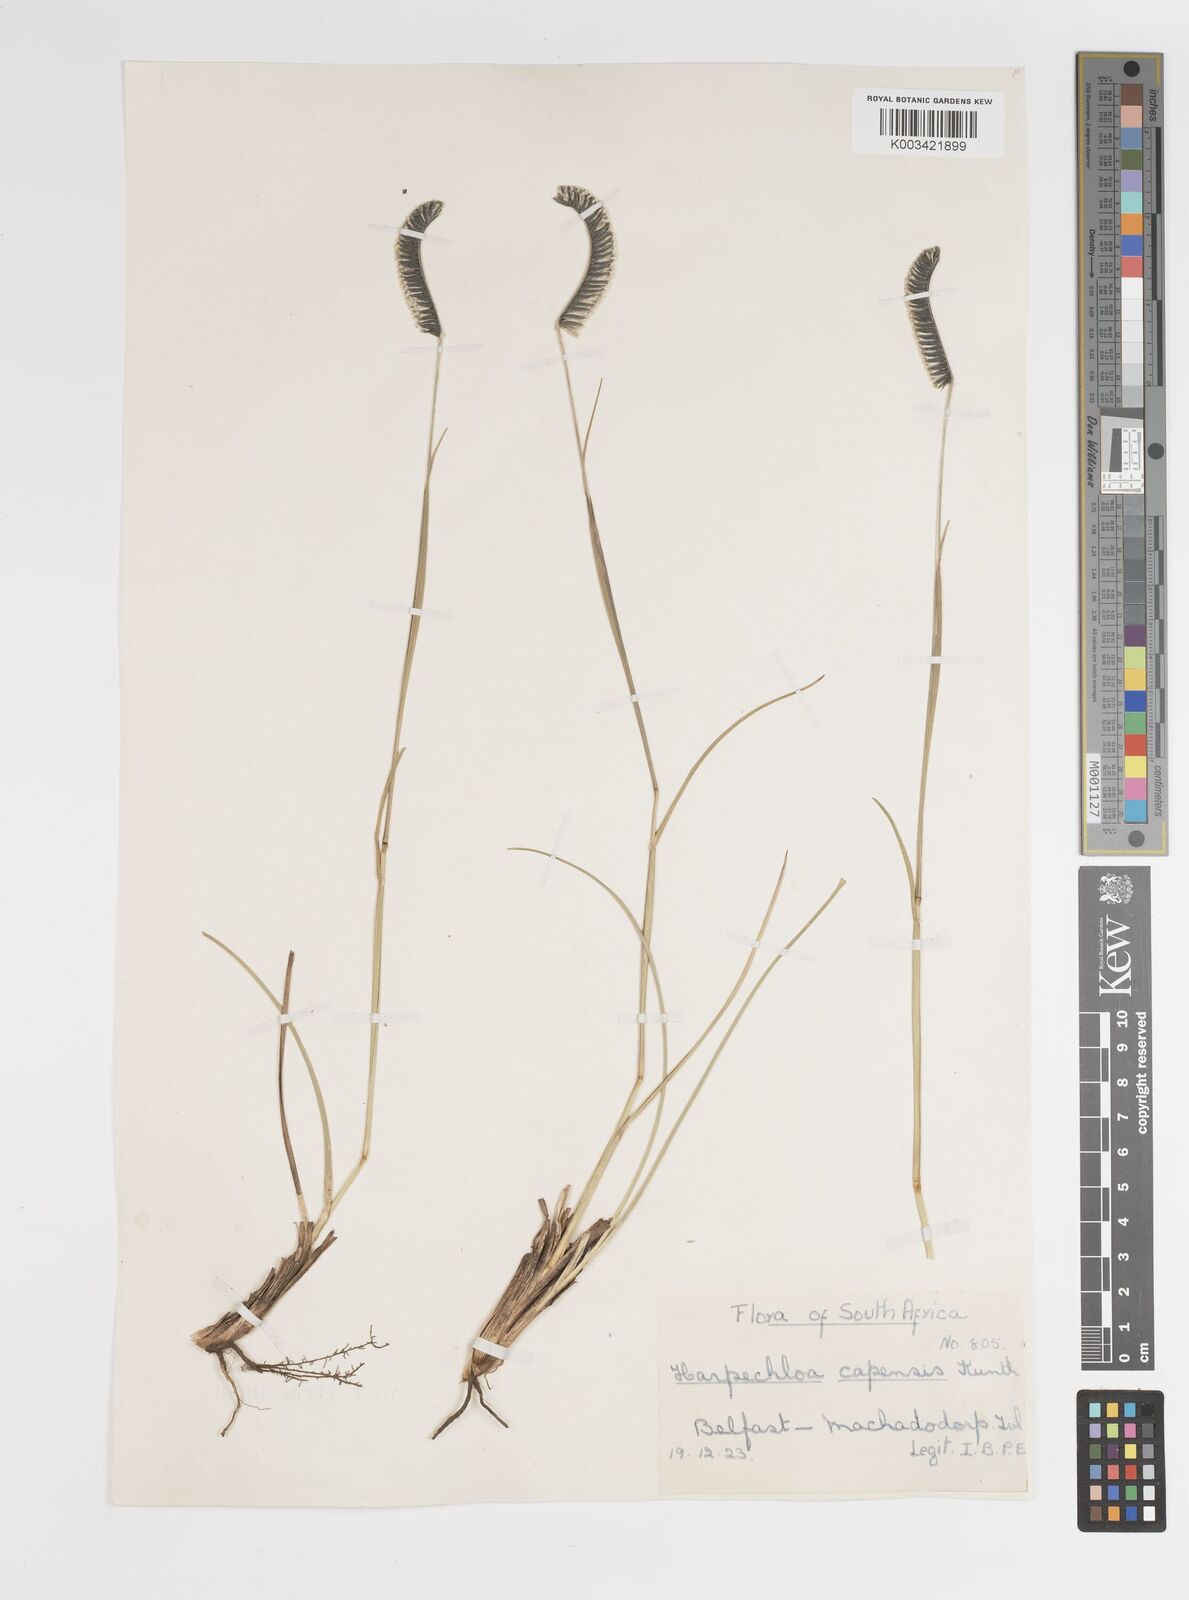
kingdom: Plantae
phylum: Tracheophyta
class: Liliopsida
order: Poales
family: Poaceae
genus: Harpochloa
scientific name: Harpochloa falx
